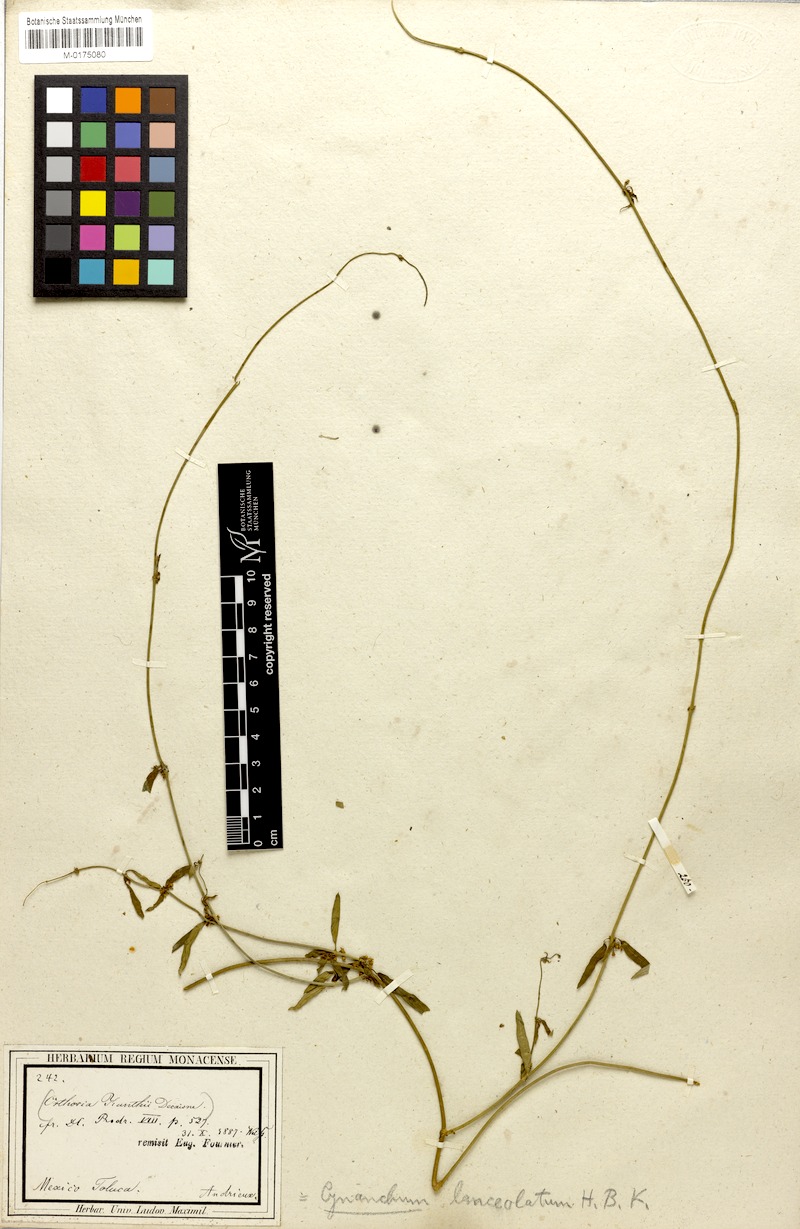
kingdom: Plantae
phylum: Tracheophyta
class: Magnoliopsida
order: Gentianales
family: Apocynaceae
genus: Orthosia
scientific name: Orthosia bonplandiana
